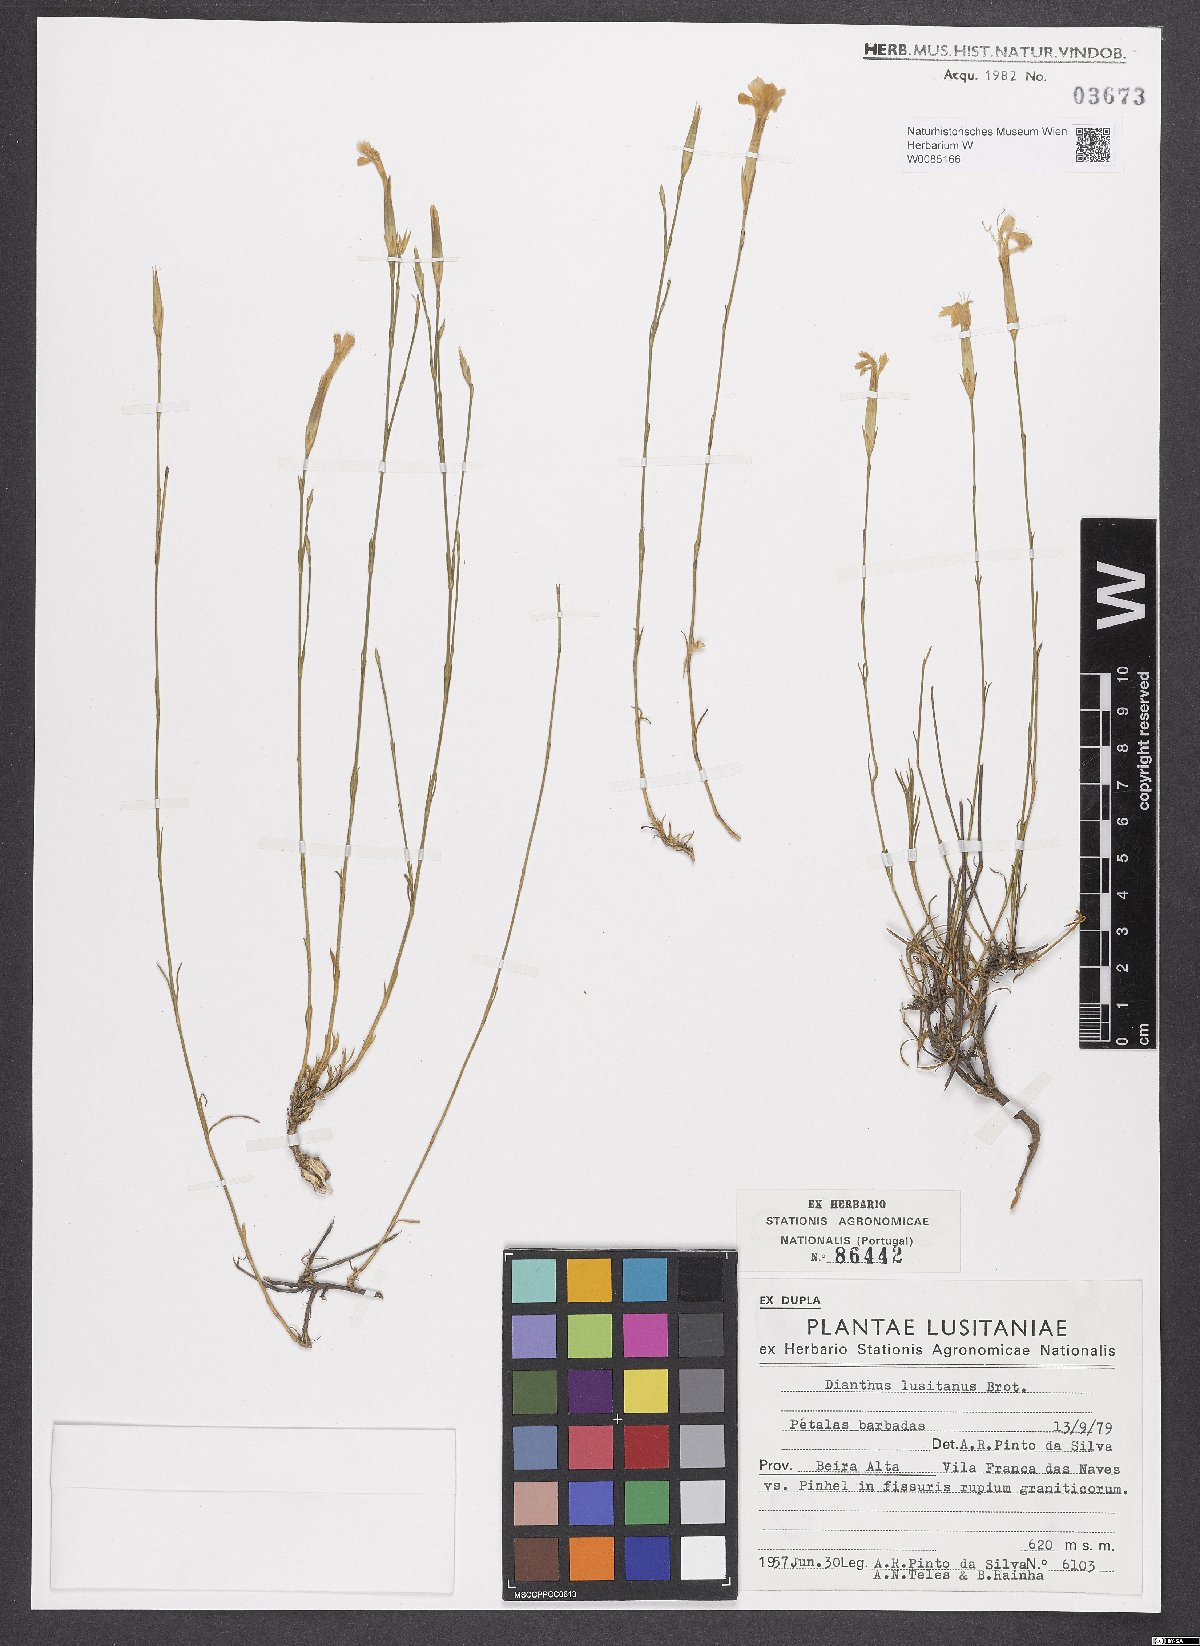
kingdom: Plantae
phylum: Tracheophyta
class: Magnoliopsida
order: Caryophyllales
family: Caryophyllaceae
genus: Dianthus
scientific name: Dianthus lusitanus
